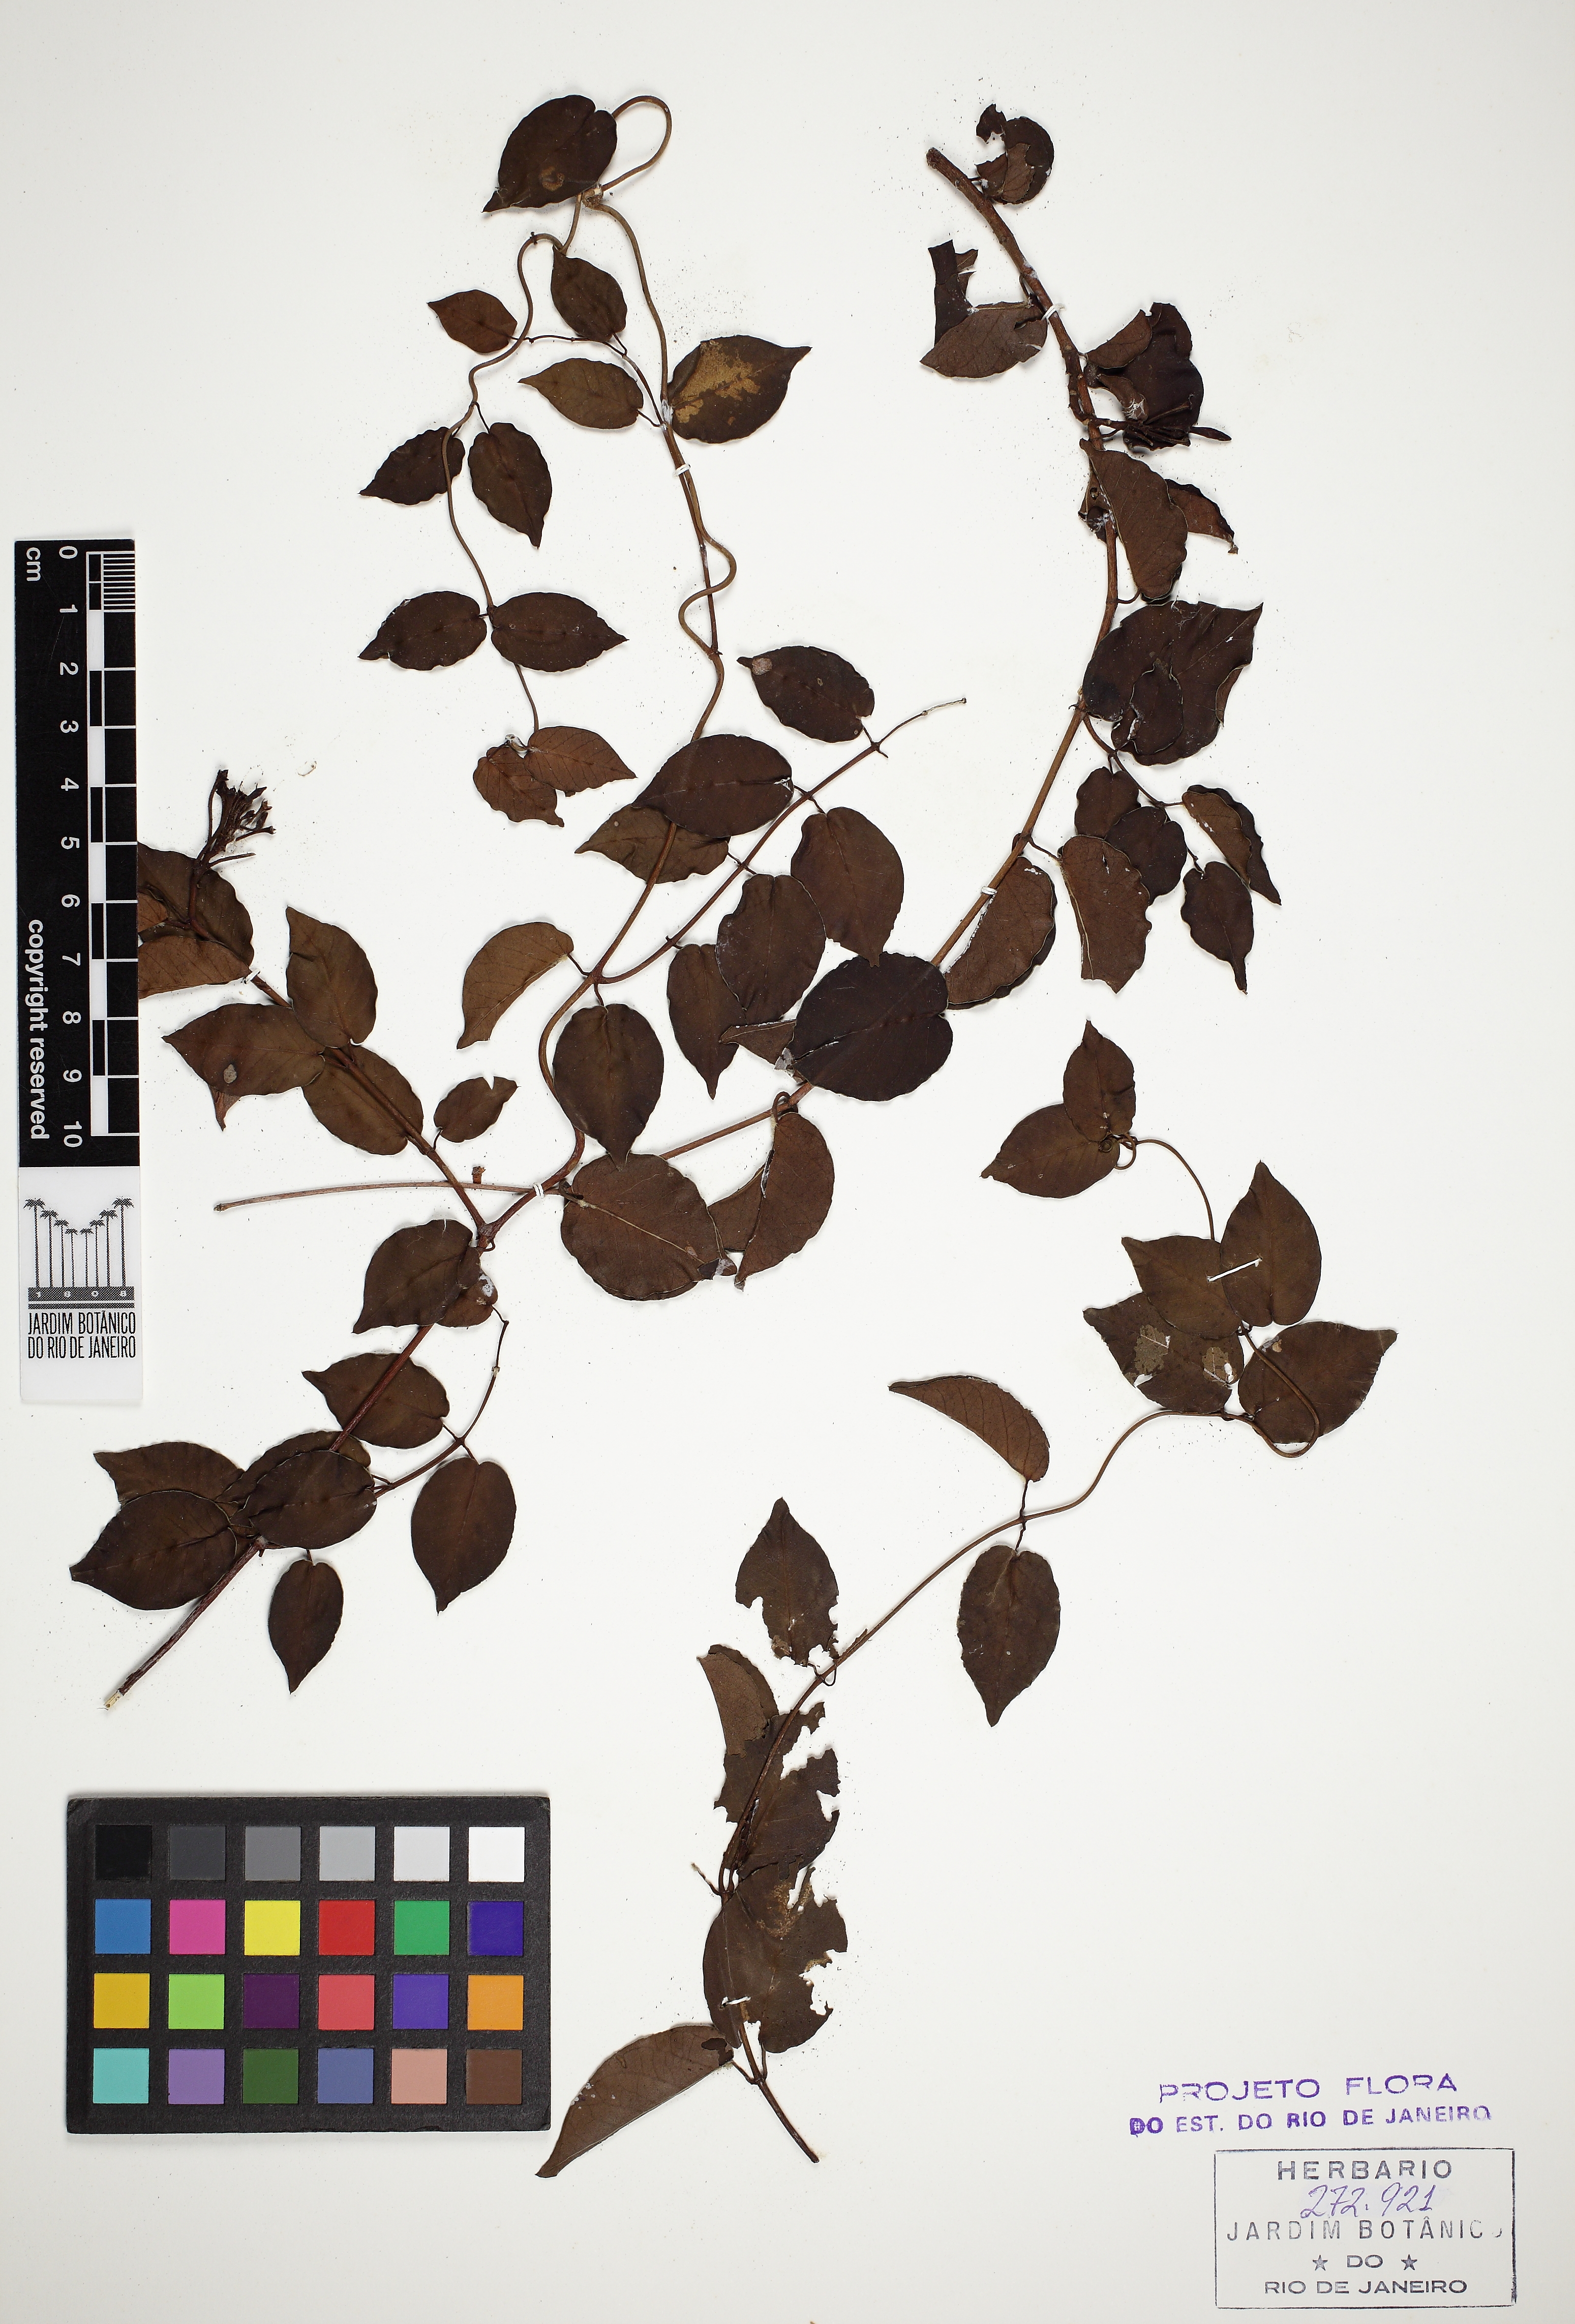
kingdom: Plantae
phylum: Tracheophyta
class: Magnoliopsida
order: Gentianales
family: Apocynaceae
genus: Mandevilla
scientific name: Mandevilla guanabarica
